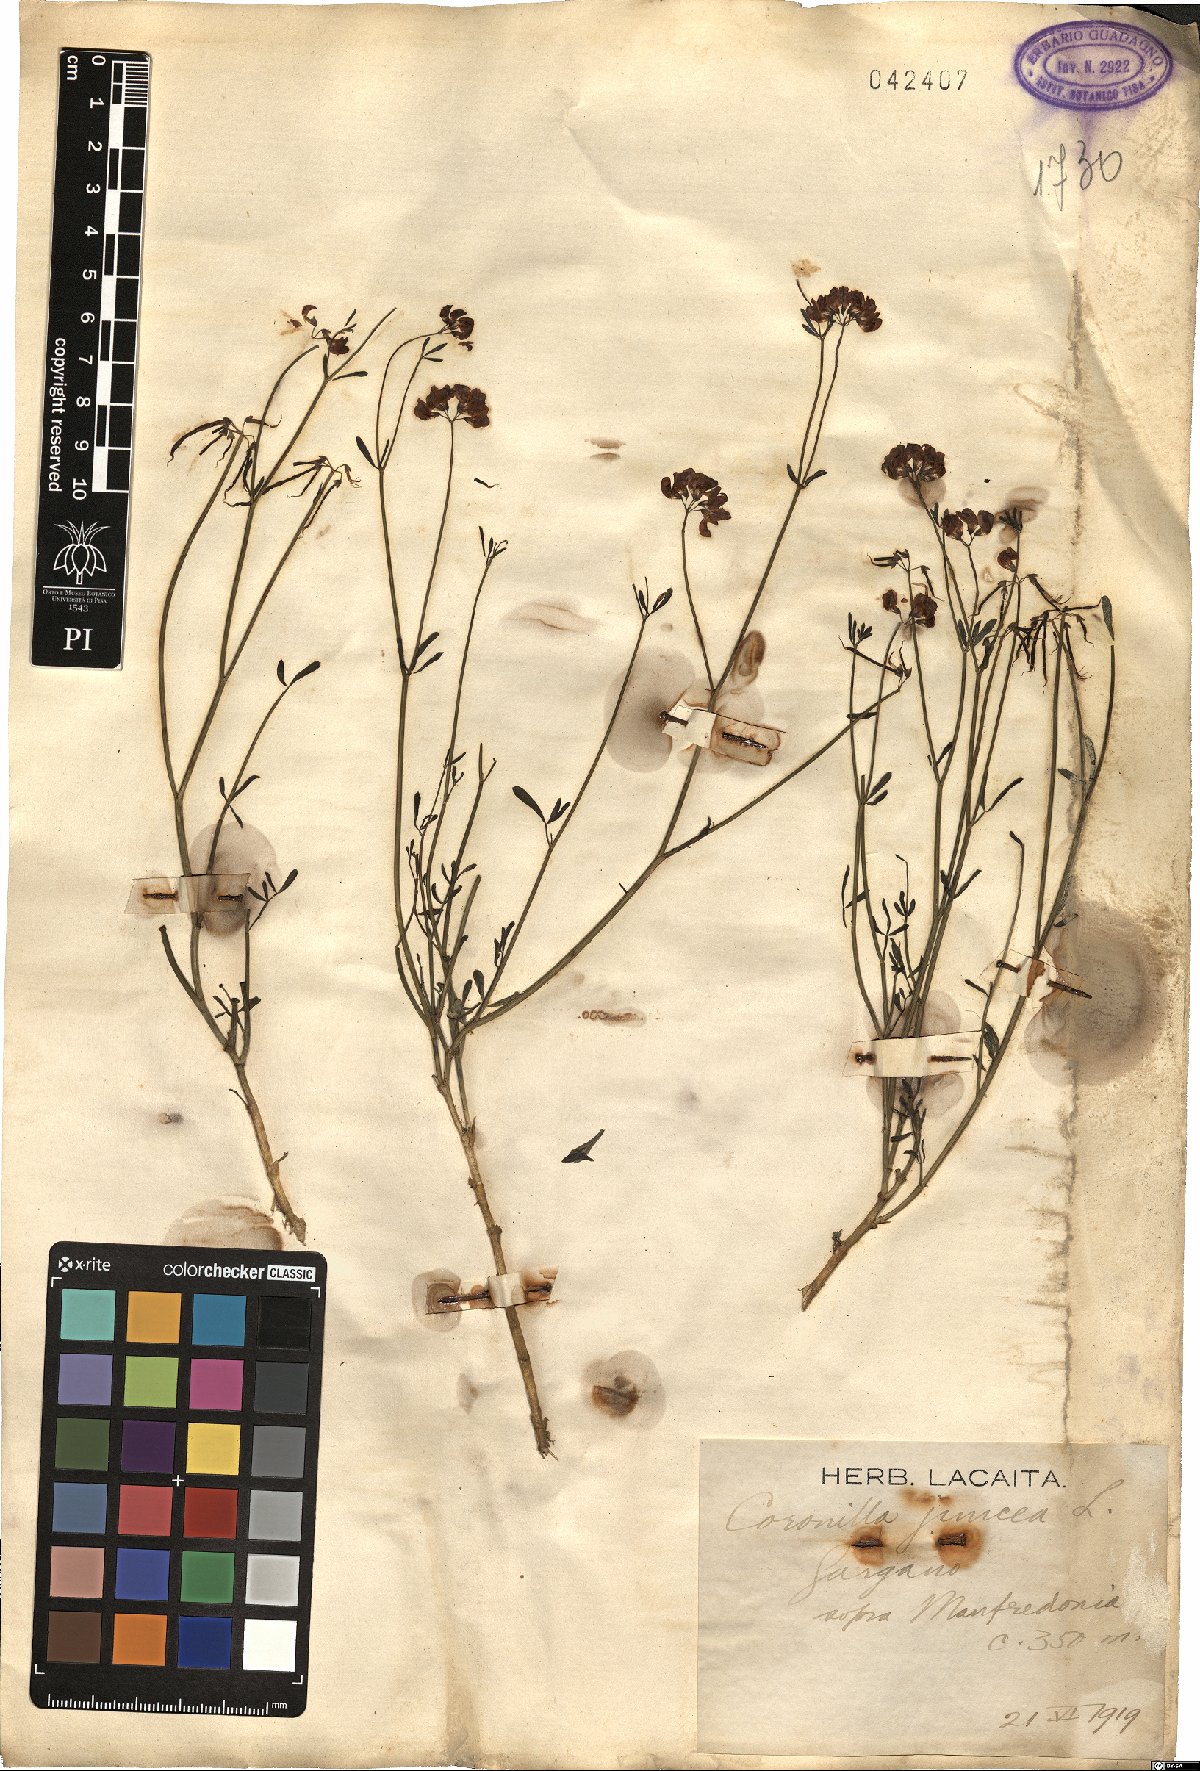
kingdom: Plantae
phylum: Tracheophyta
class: Magnoliopsida
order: Fabales
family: Fabaceae
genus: Coronilla
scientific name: Coronilla juncea
